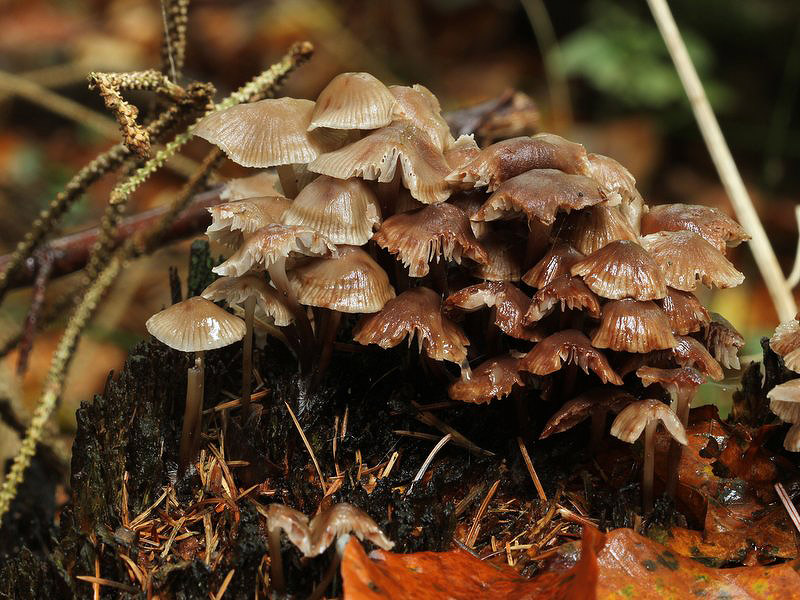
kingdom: Fungi
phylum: Basidiomycota
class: Agaricomycetes
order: Agaricales
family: Mycenaceae
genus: Mycena
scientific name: Mycena inclinata
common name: nikkende huesvamp
